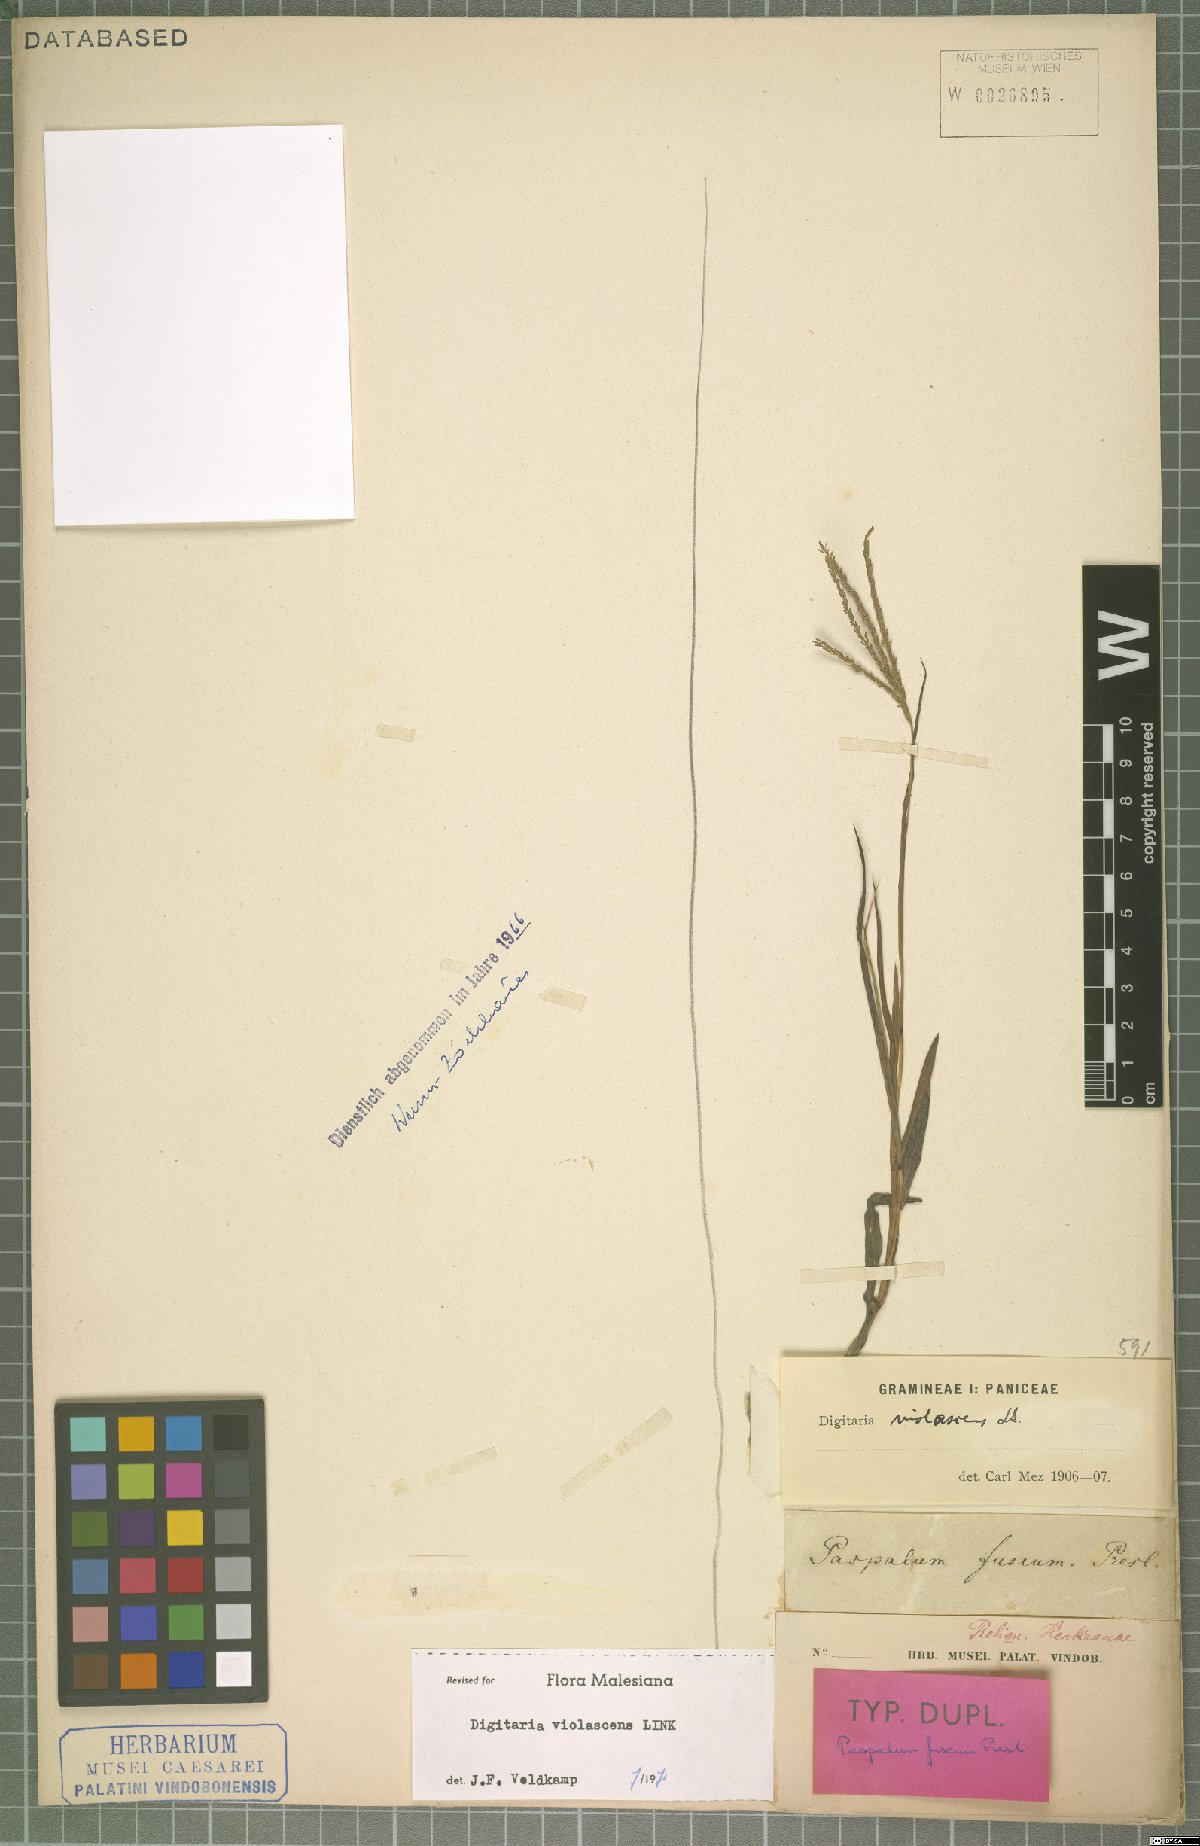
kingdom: Plantae
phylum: Tracheophyta
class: Liliopsida
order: Poales
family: Poaceae
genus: Digitaria
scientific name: Digitaria violascens
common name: Violet crabgrass
